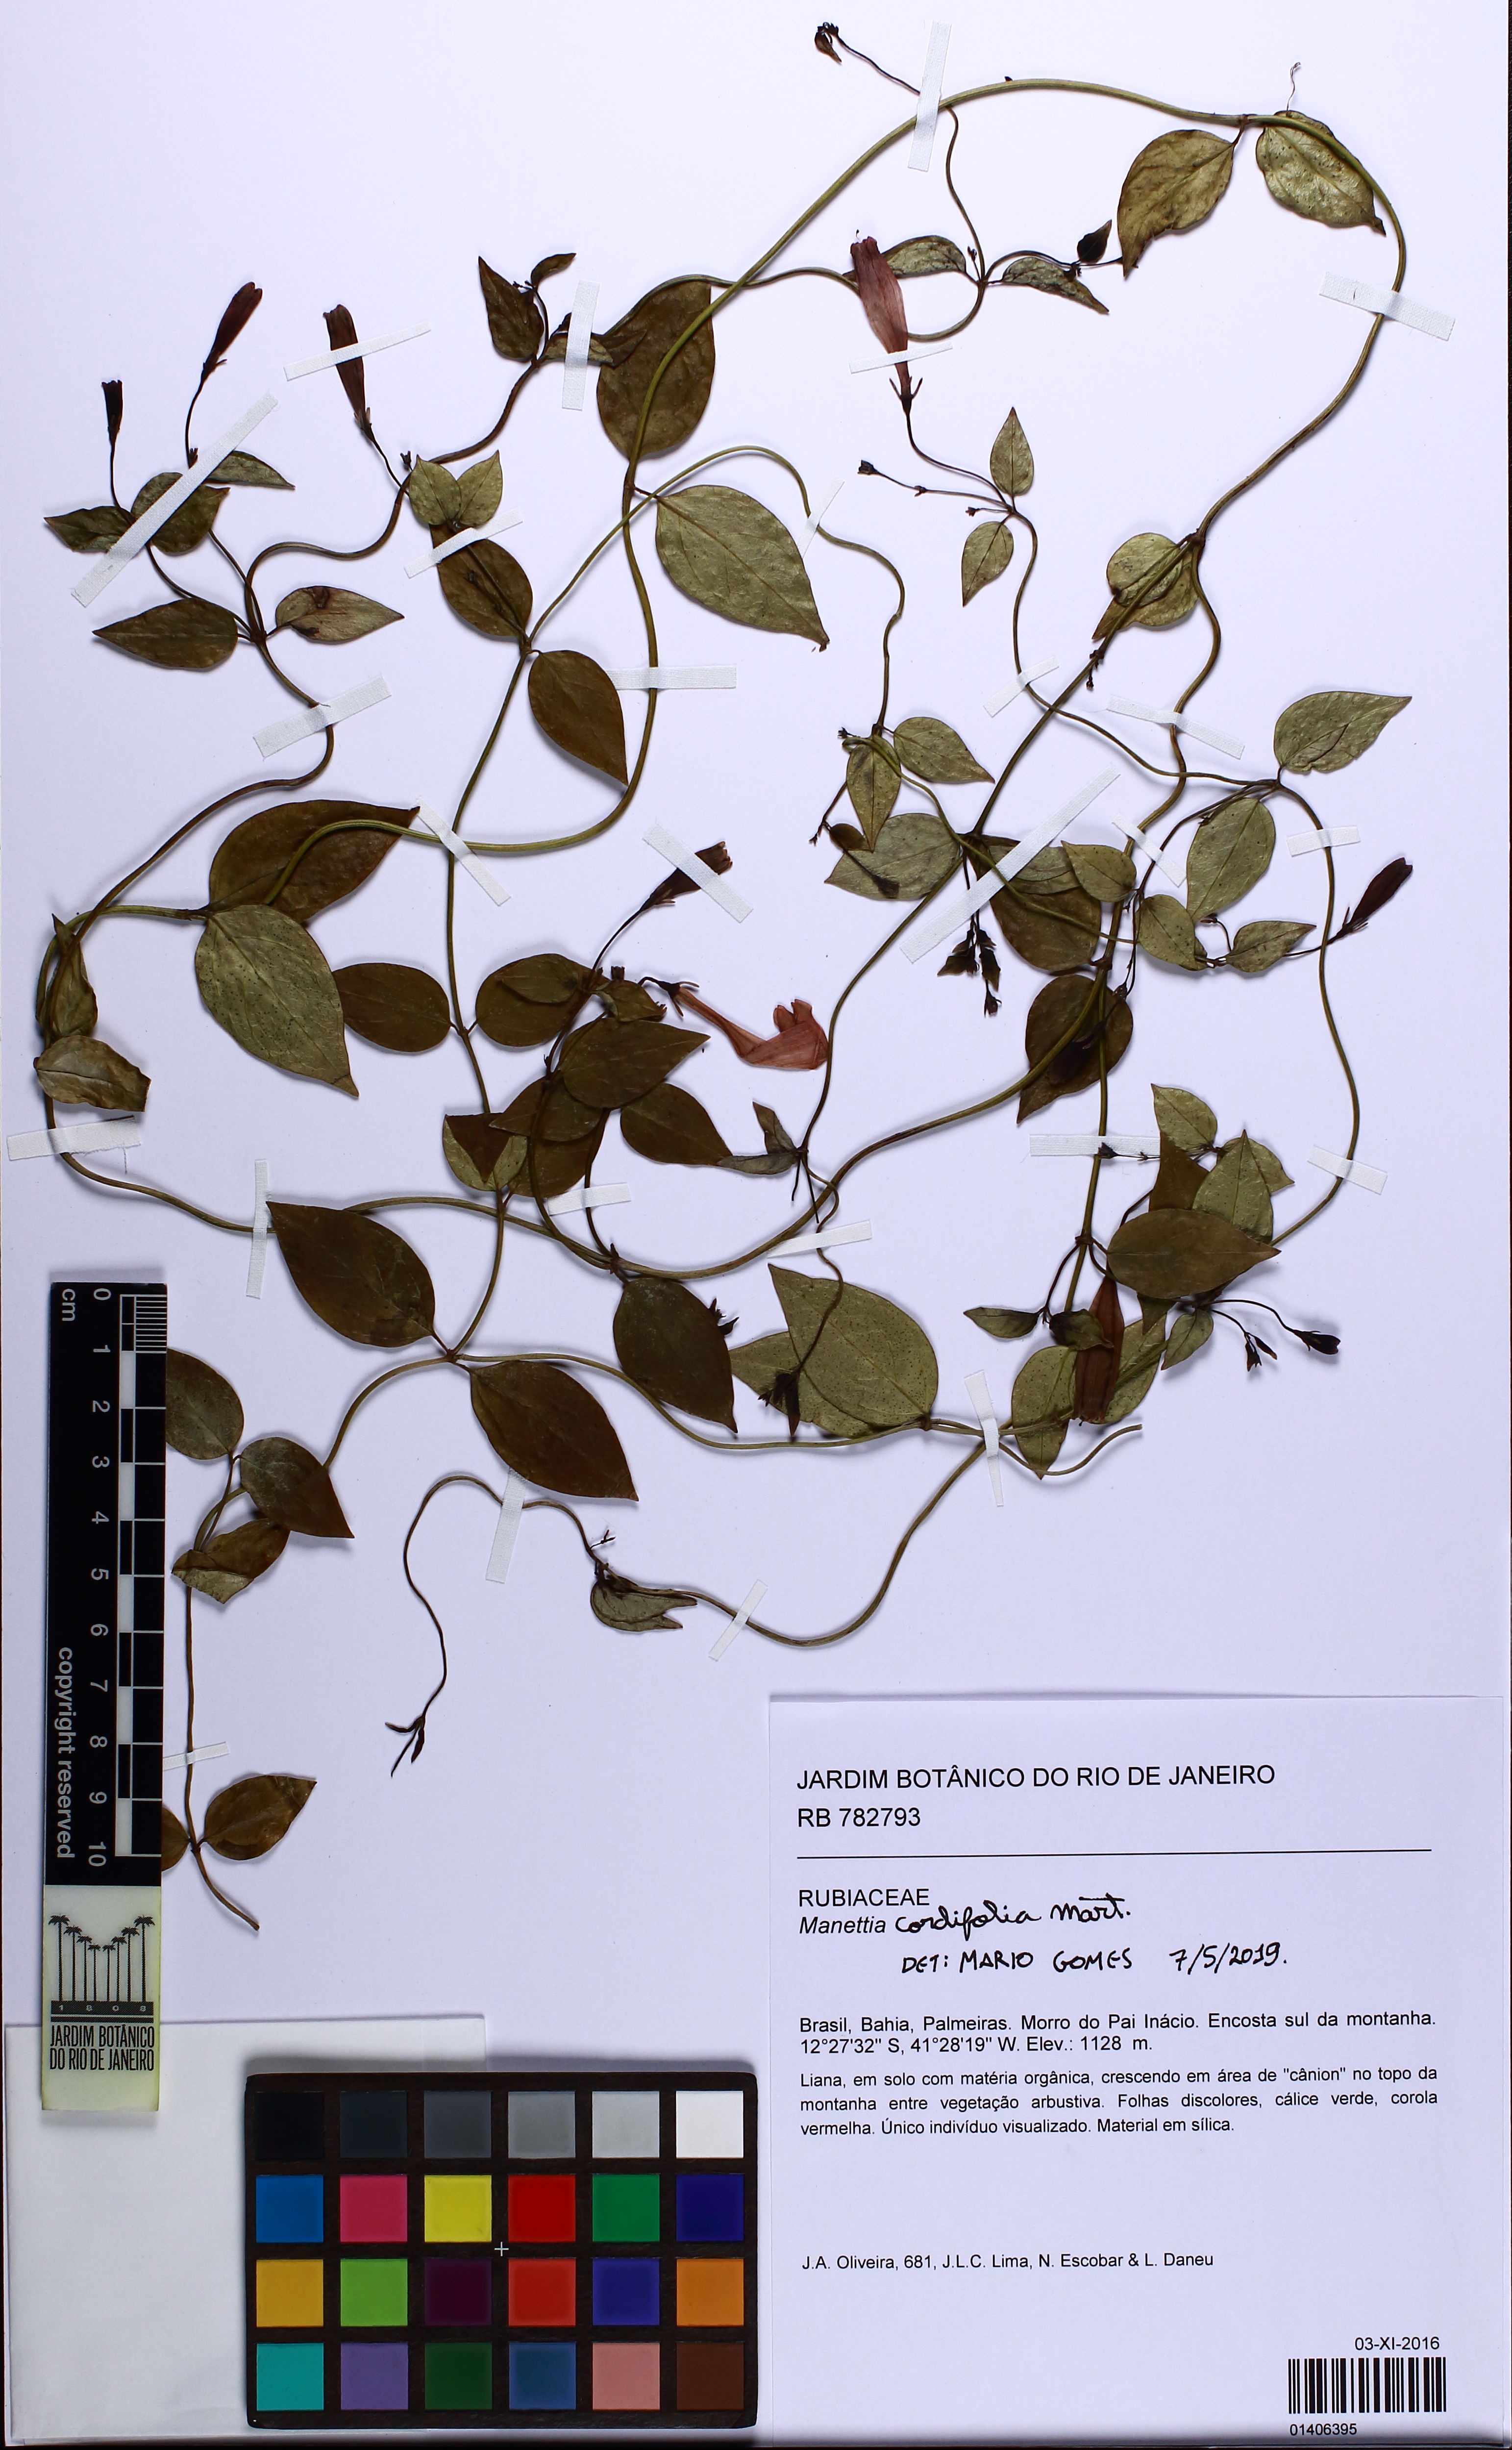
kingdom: Plantae
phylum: Tracheophyta
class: Magnoliopsida
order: Gentianales
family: Rubiaceae
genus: Manettia
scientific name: Manettia cordifolia
